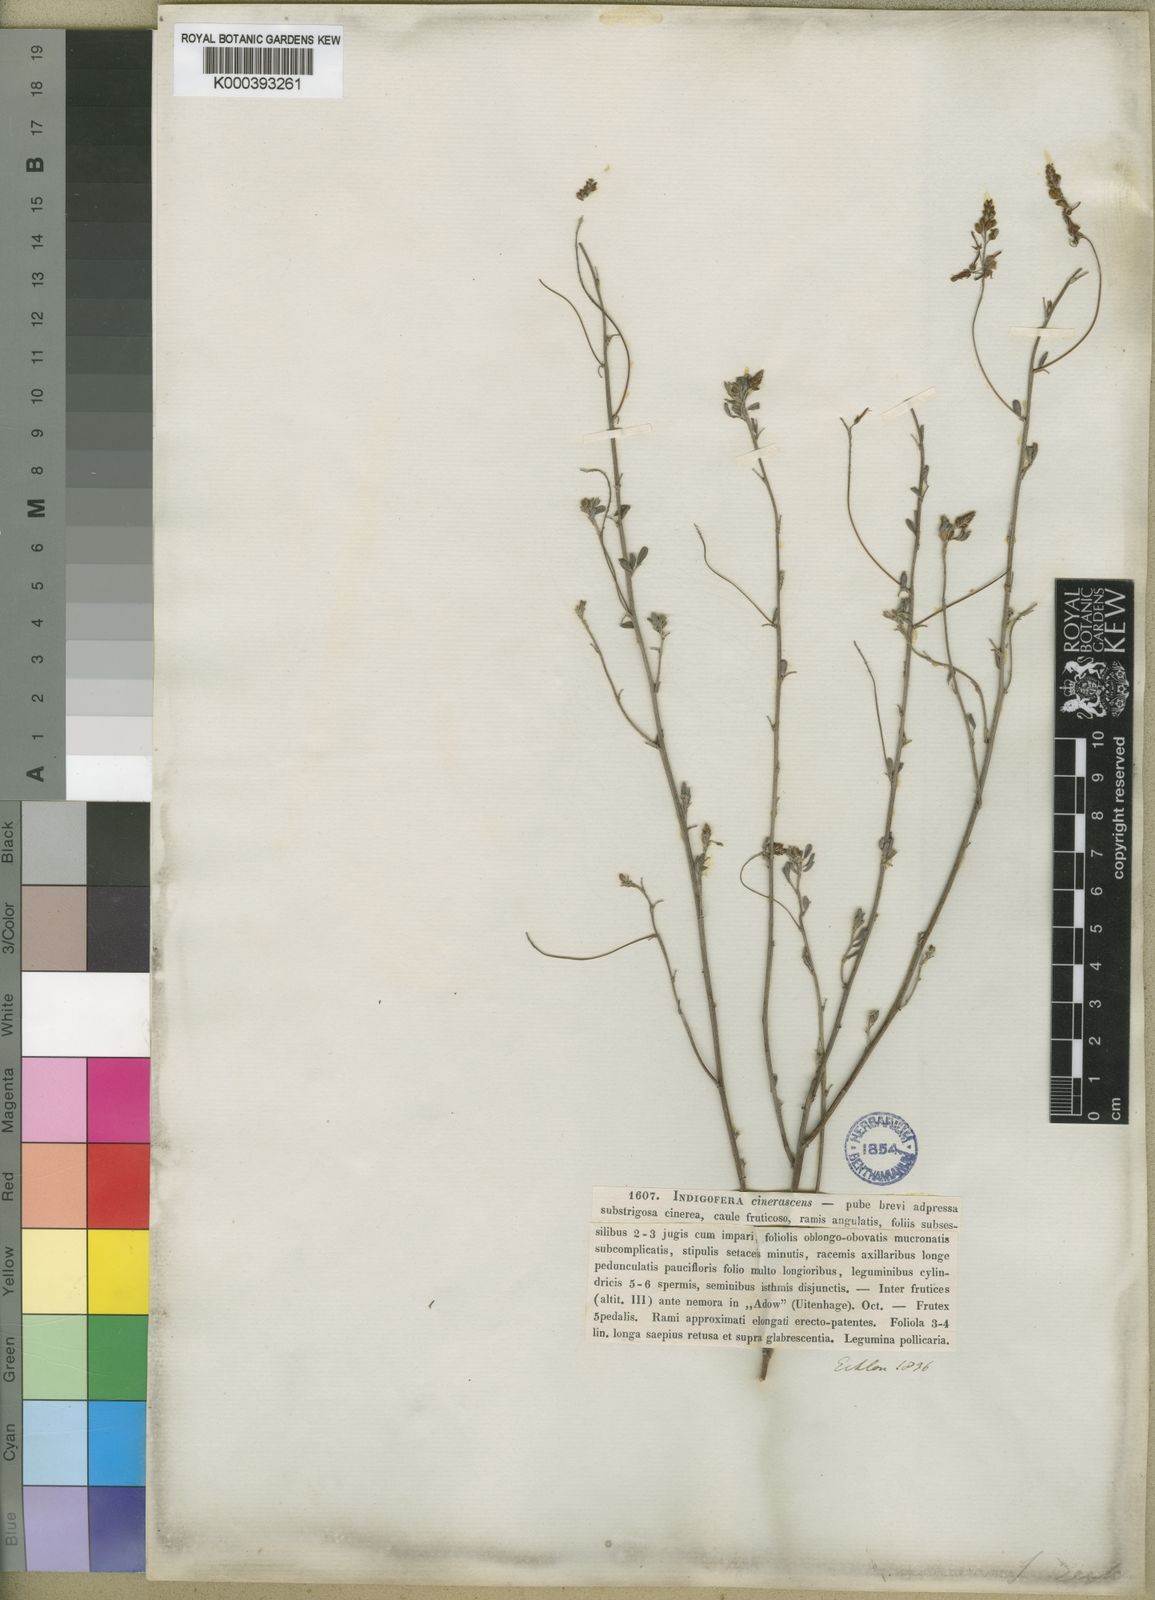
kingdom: Plantae
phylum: Tracheophyta
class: Magnoliopsida
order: Fabales
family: Fabaceae
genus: Indigofera
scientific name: Indigofera punctata
